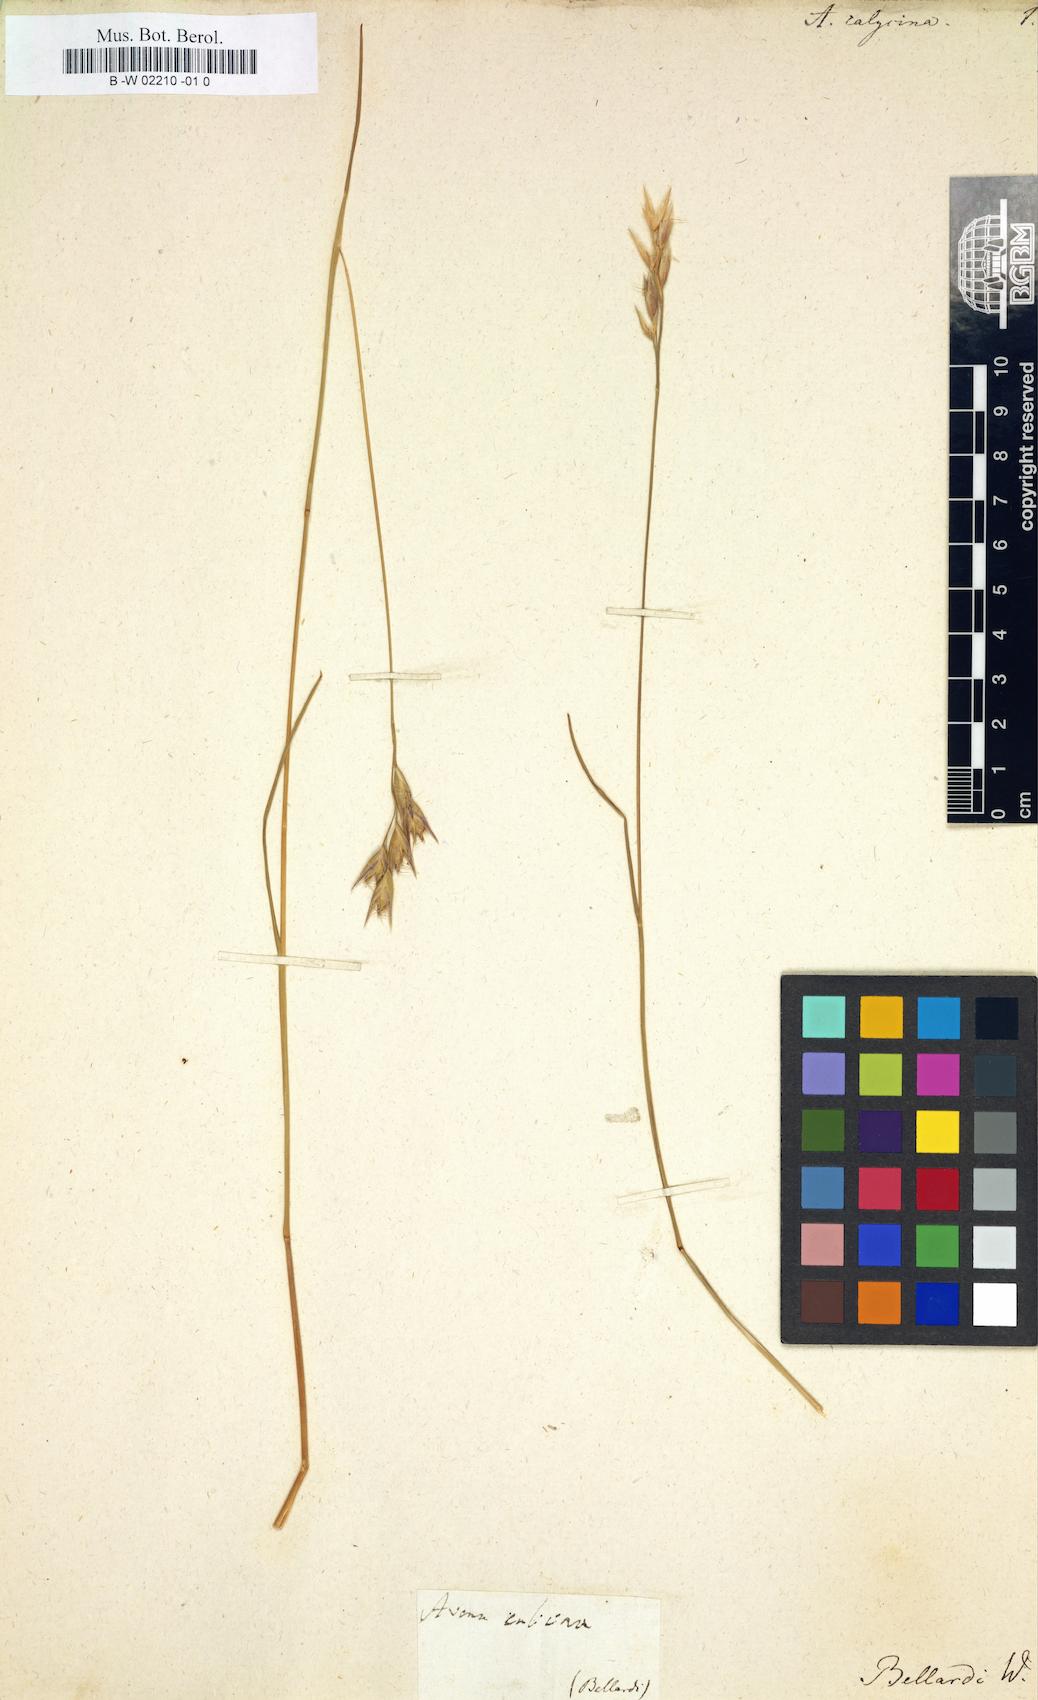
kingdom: Plantae
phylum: Tracheophyta
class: Liliopsida
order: Poales
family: Poaceae
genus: Danthonia
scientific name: Danthonia
